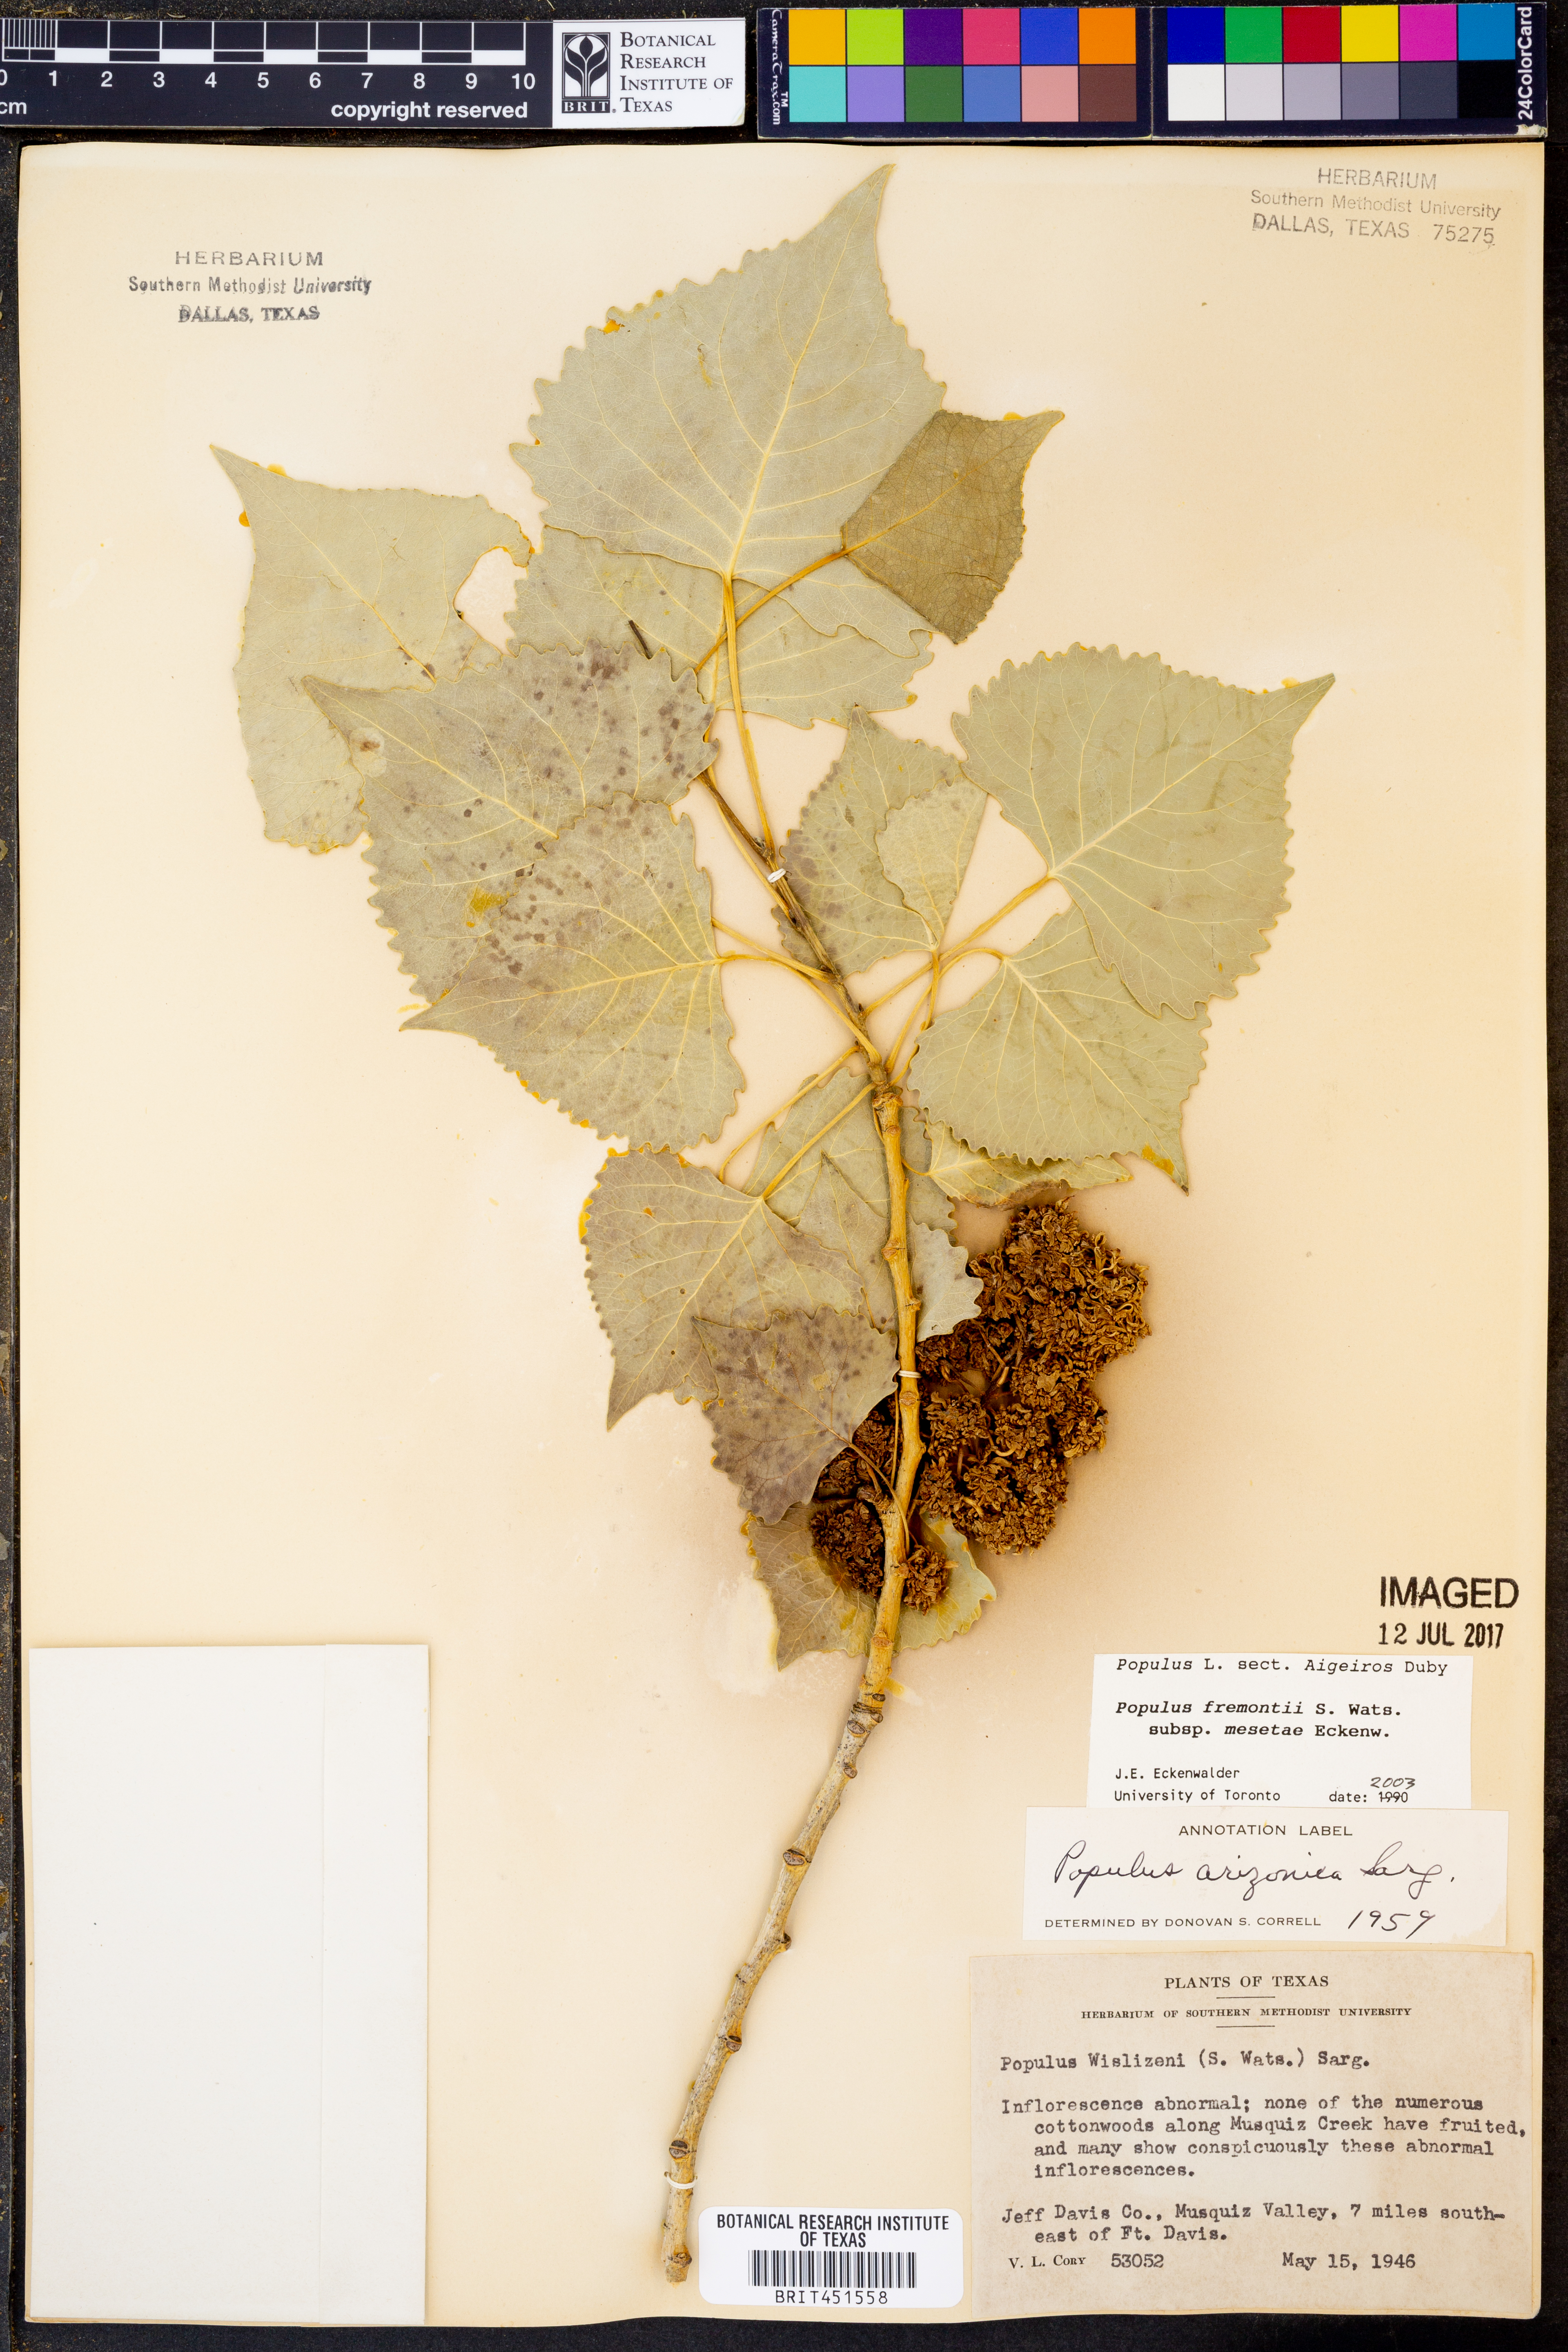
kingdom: Plantae
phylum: Tracheophyta
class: Magnoliopsida
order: Malpighiales
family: Salicaceae
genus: Populus
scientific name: Populus fremontii
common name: Fremont's cottonwood
